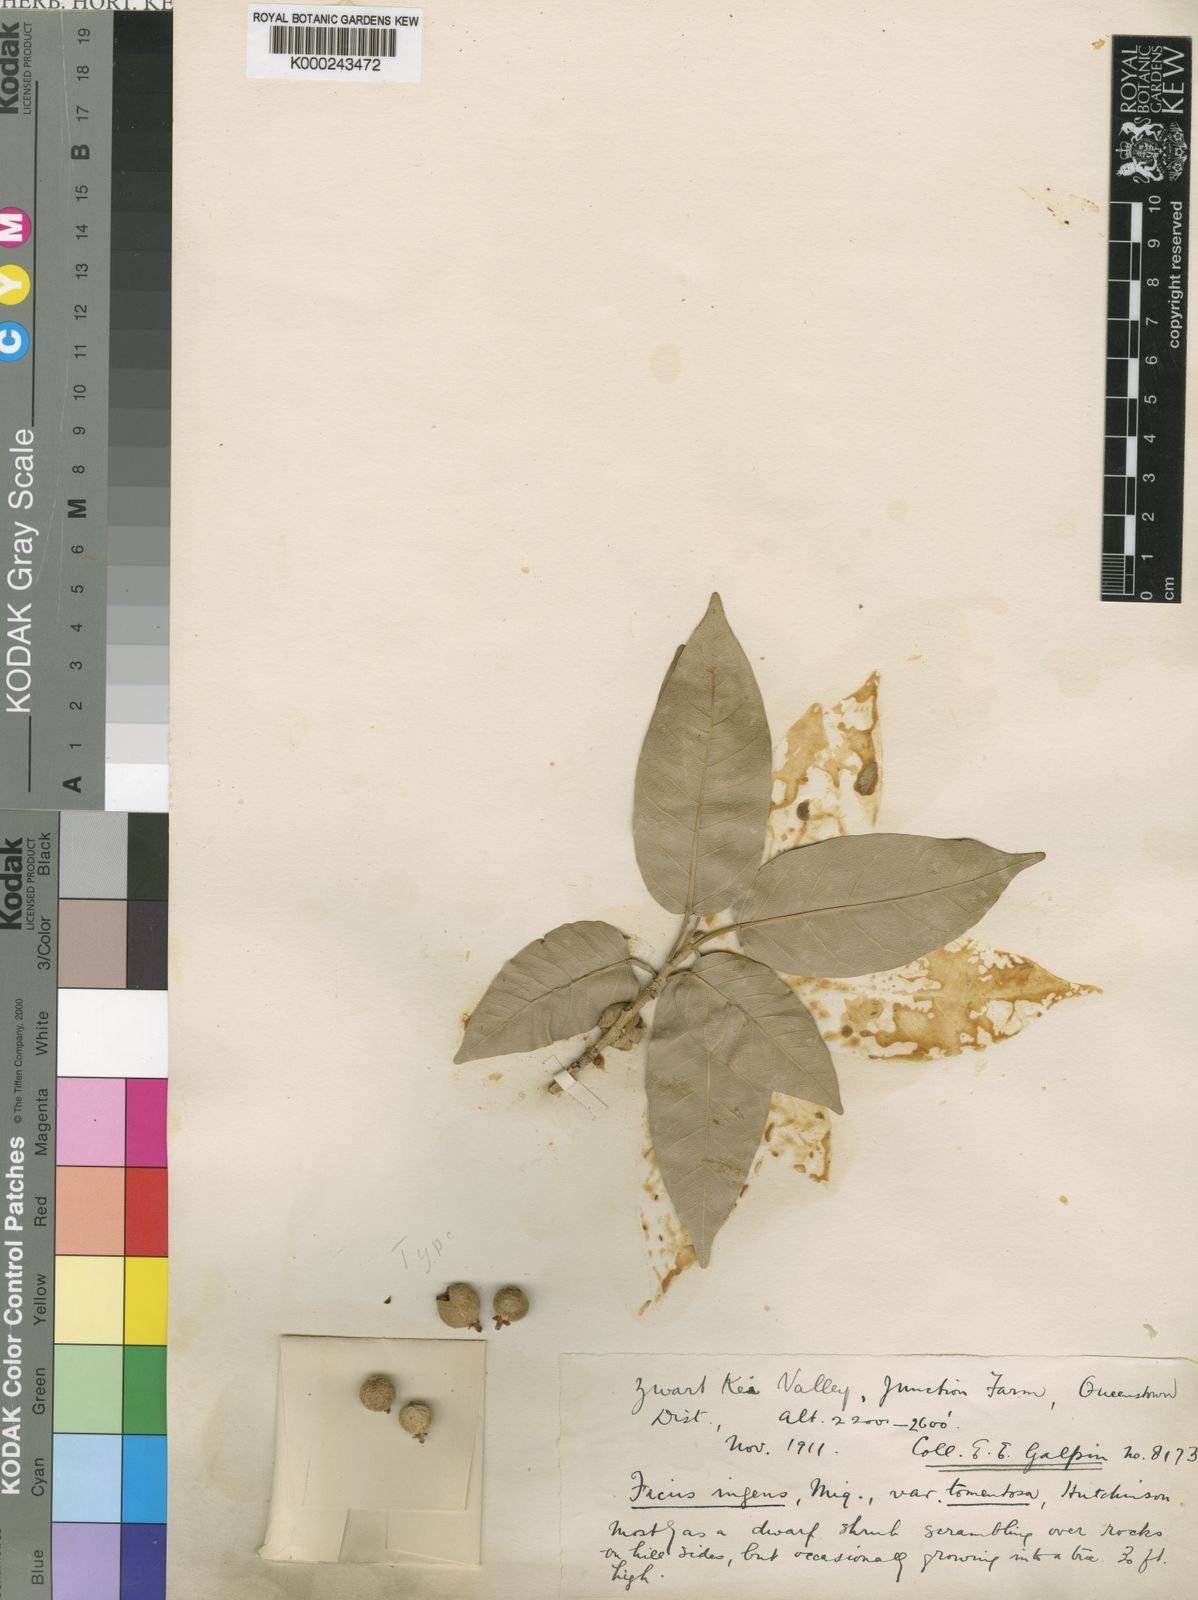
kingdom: Plantae
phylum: Tracheophyta
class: Magnoliopsida
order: Rosales
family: Moraceae
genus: Ficus
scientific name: Ficus ingens
